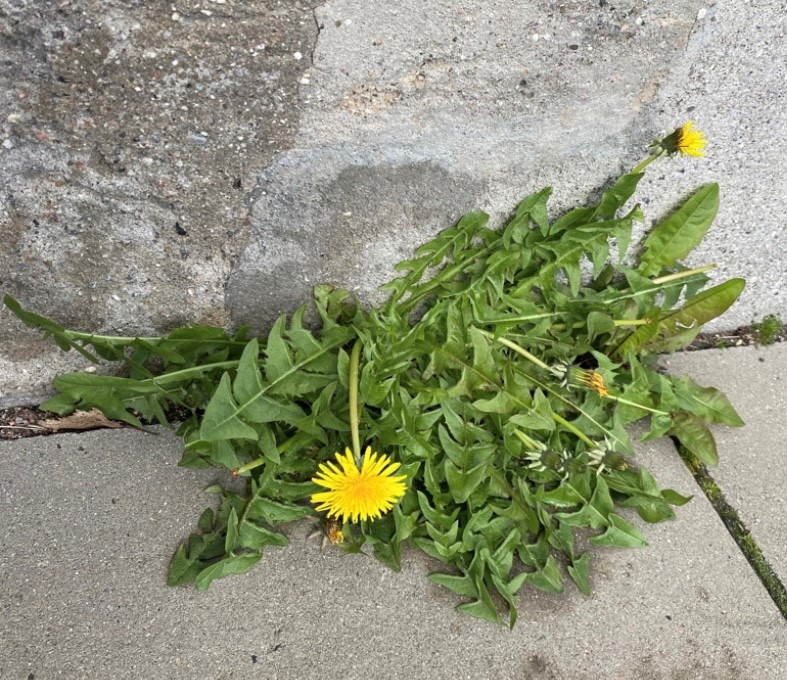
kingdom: Plantae
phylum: Tracheophyta
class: Magnoliopsida
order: Asterales
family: Asteraceae
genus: Taraxacum
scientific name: Taraxacum
